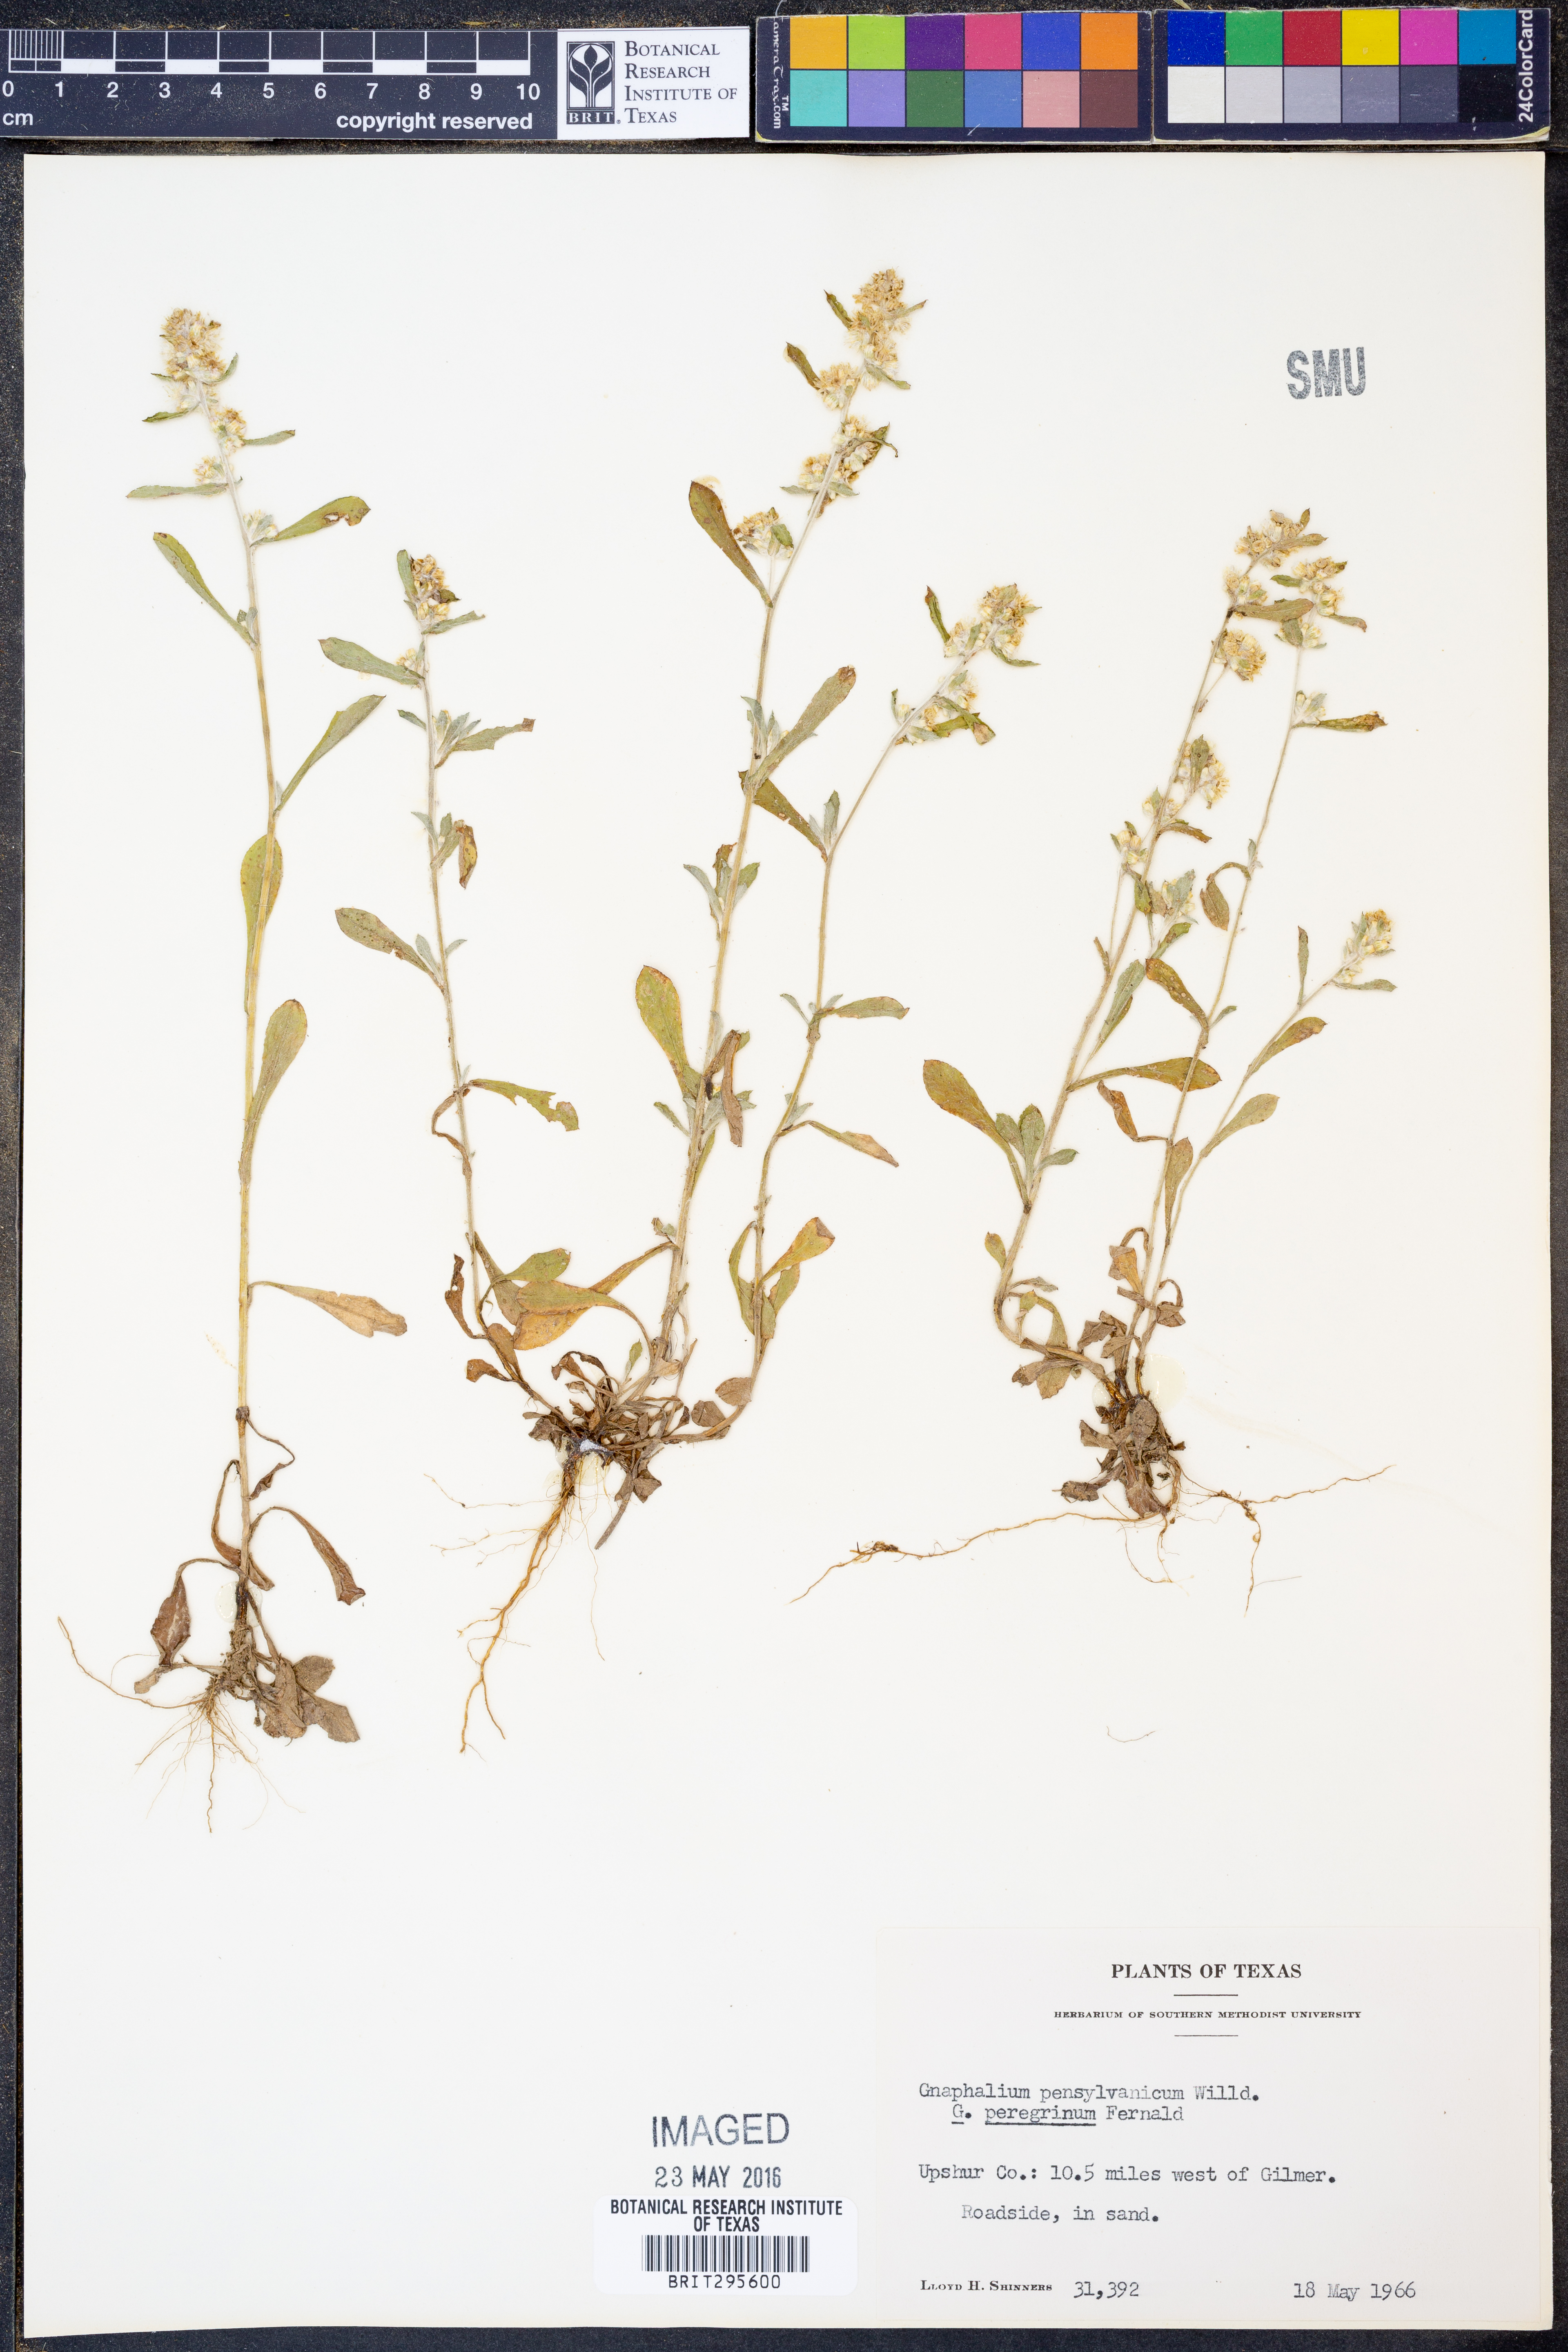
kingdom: Plantae
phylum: Tracheophyta
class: Magnoliopsida
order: Asterales
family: Asteraceae
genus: Gamochaeta
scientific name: Gamochaeta pensylvanica
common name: Pennsylvania everlasting
